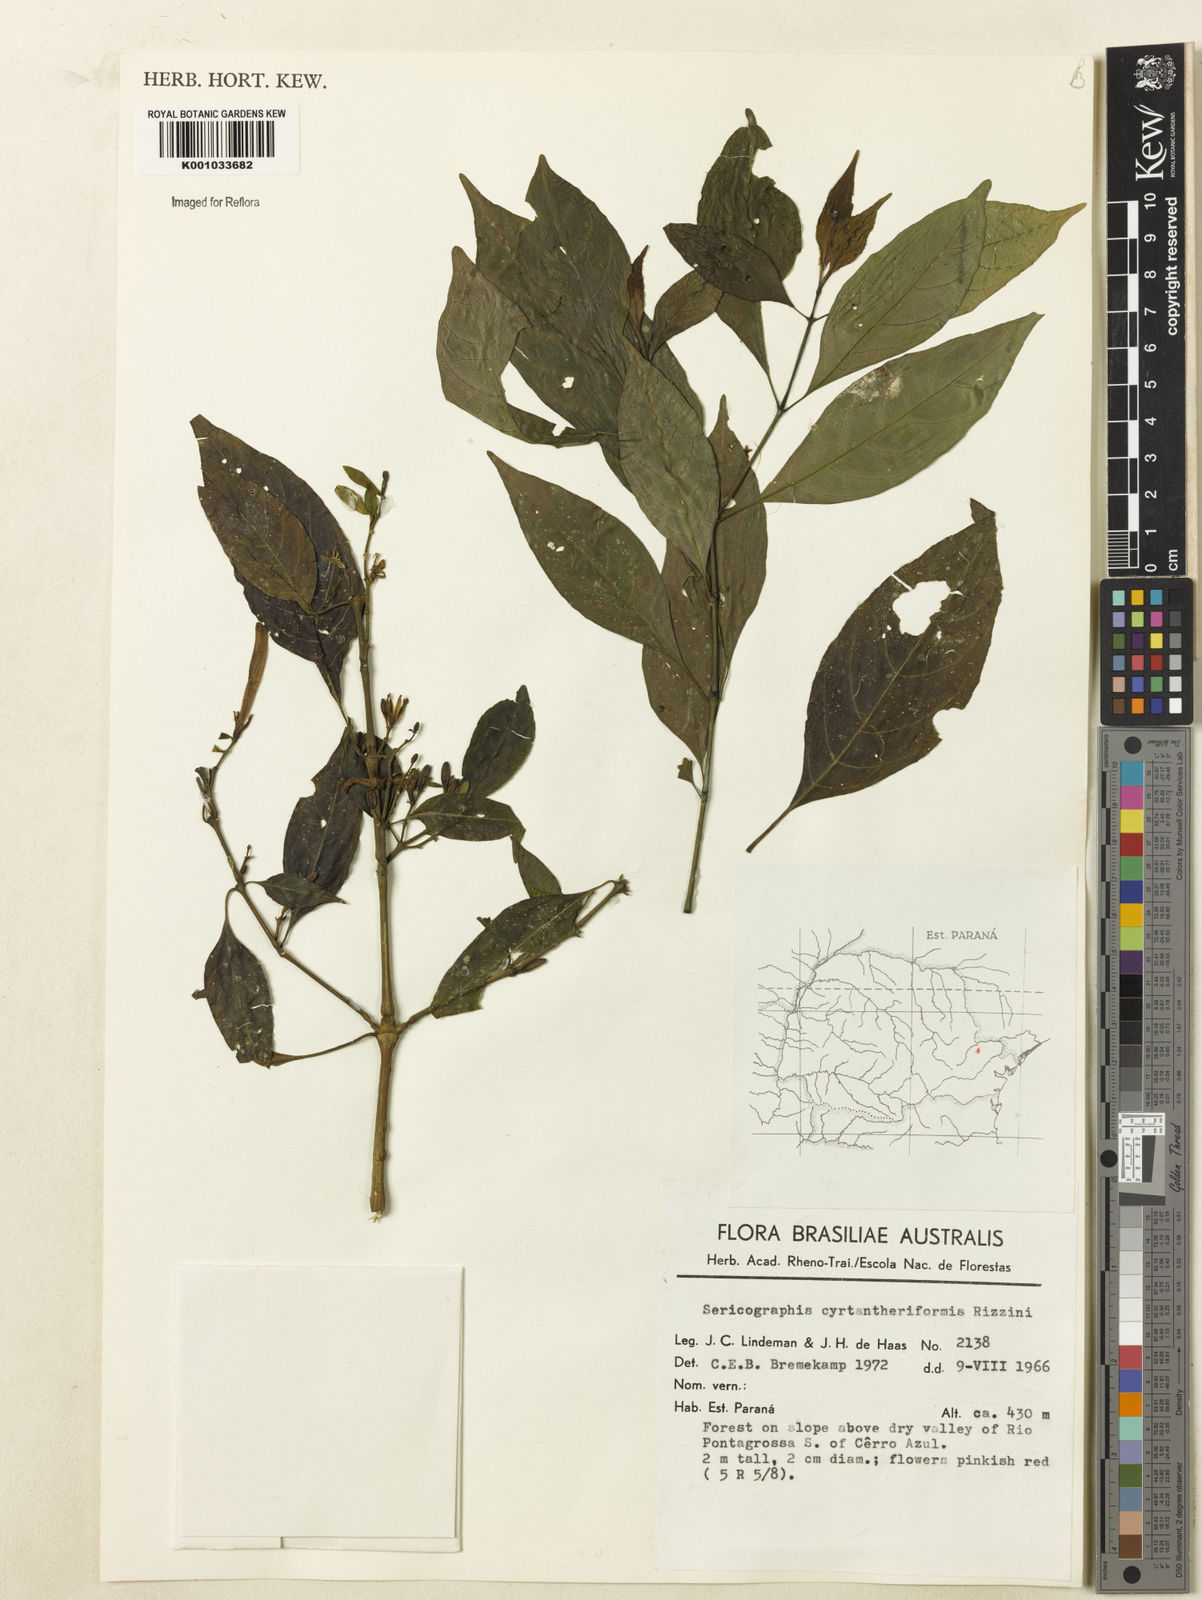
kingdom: Plantae
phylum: Tracheophyta
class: Magnoliopsida
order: Lamiales
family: Acanthaceae
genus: Justicia
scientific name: Justicia
